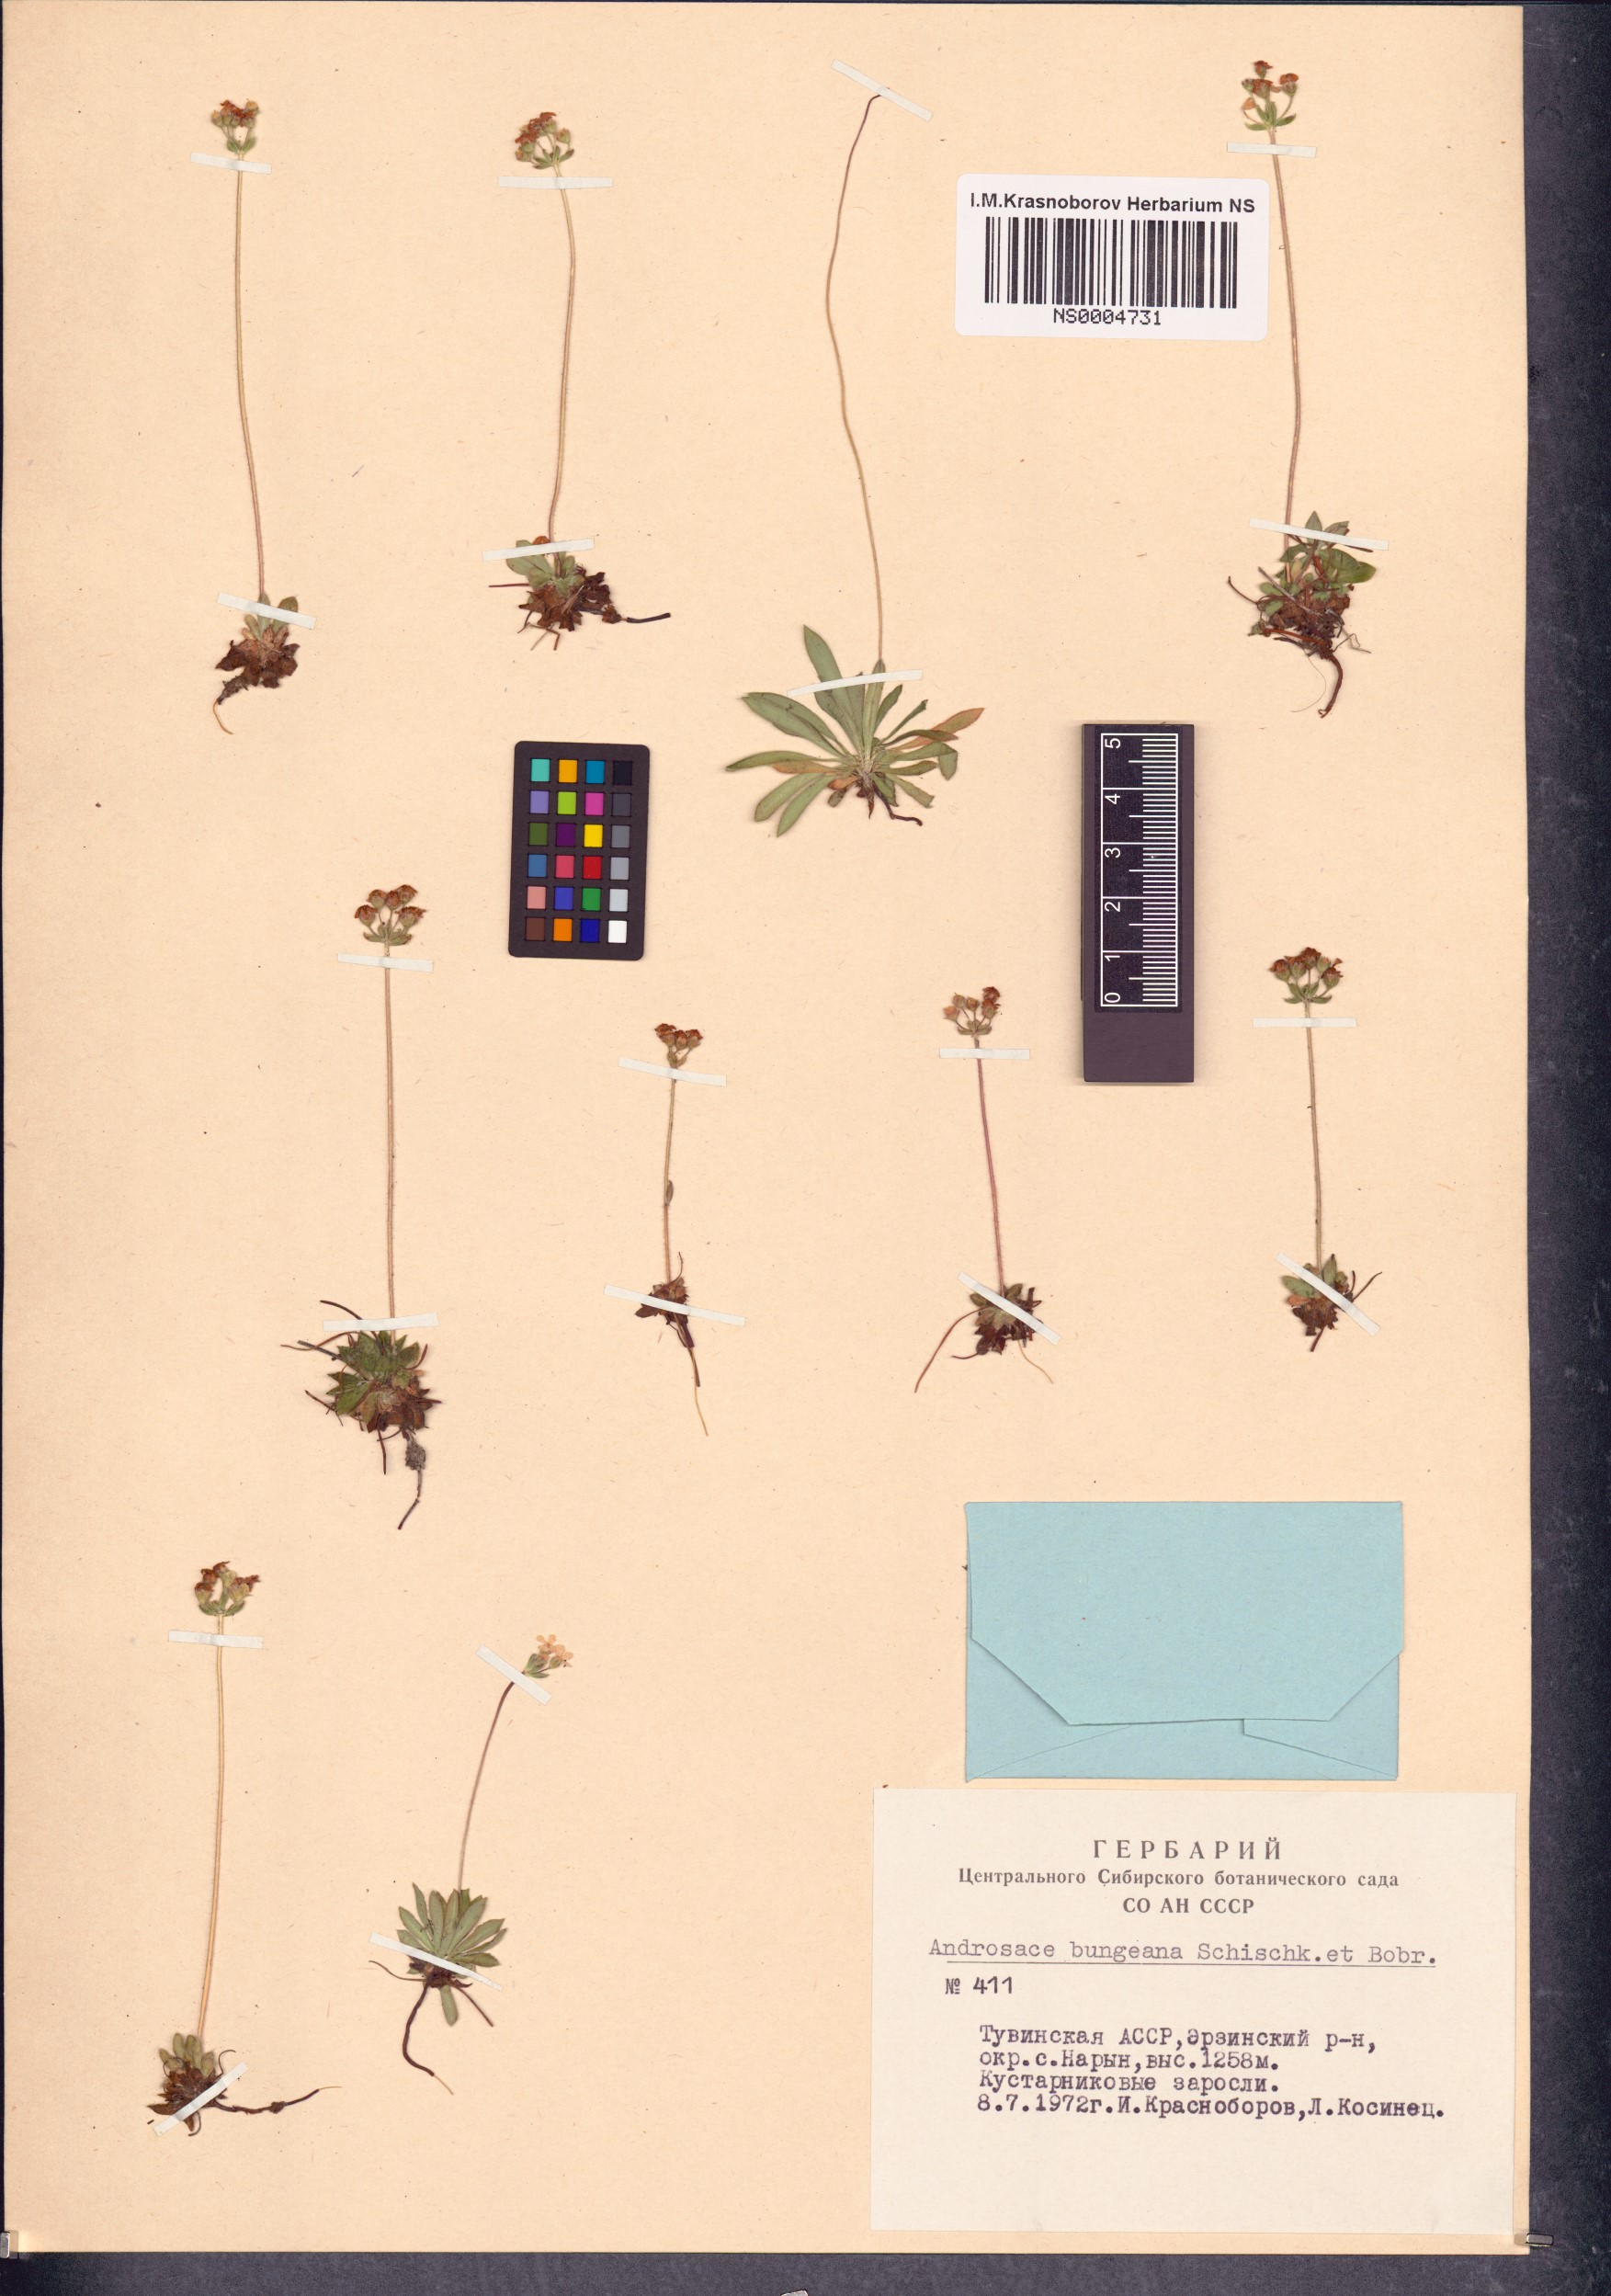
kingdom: Plantae
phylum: Tracheophyta
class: Magnoliopsida
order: Ericales
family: Primulaceae
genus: Androsace
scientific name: Androsace bungeana
